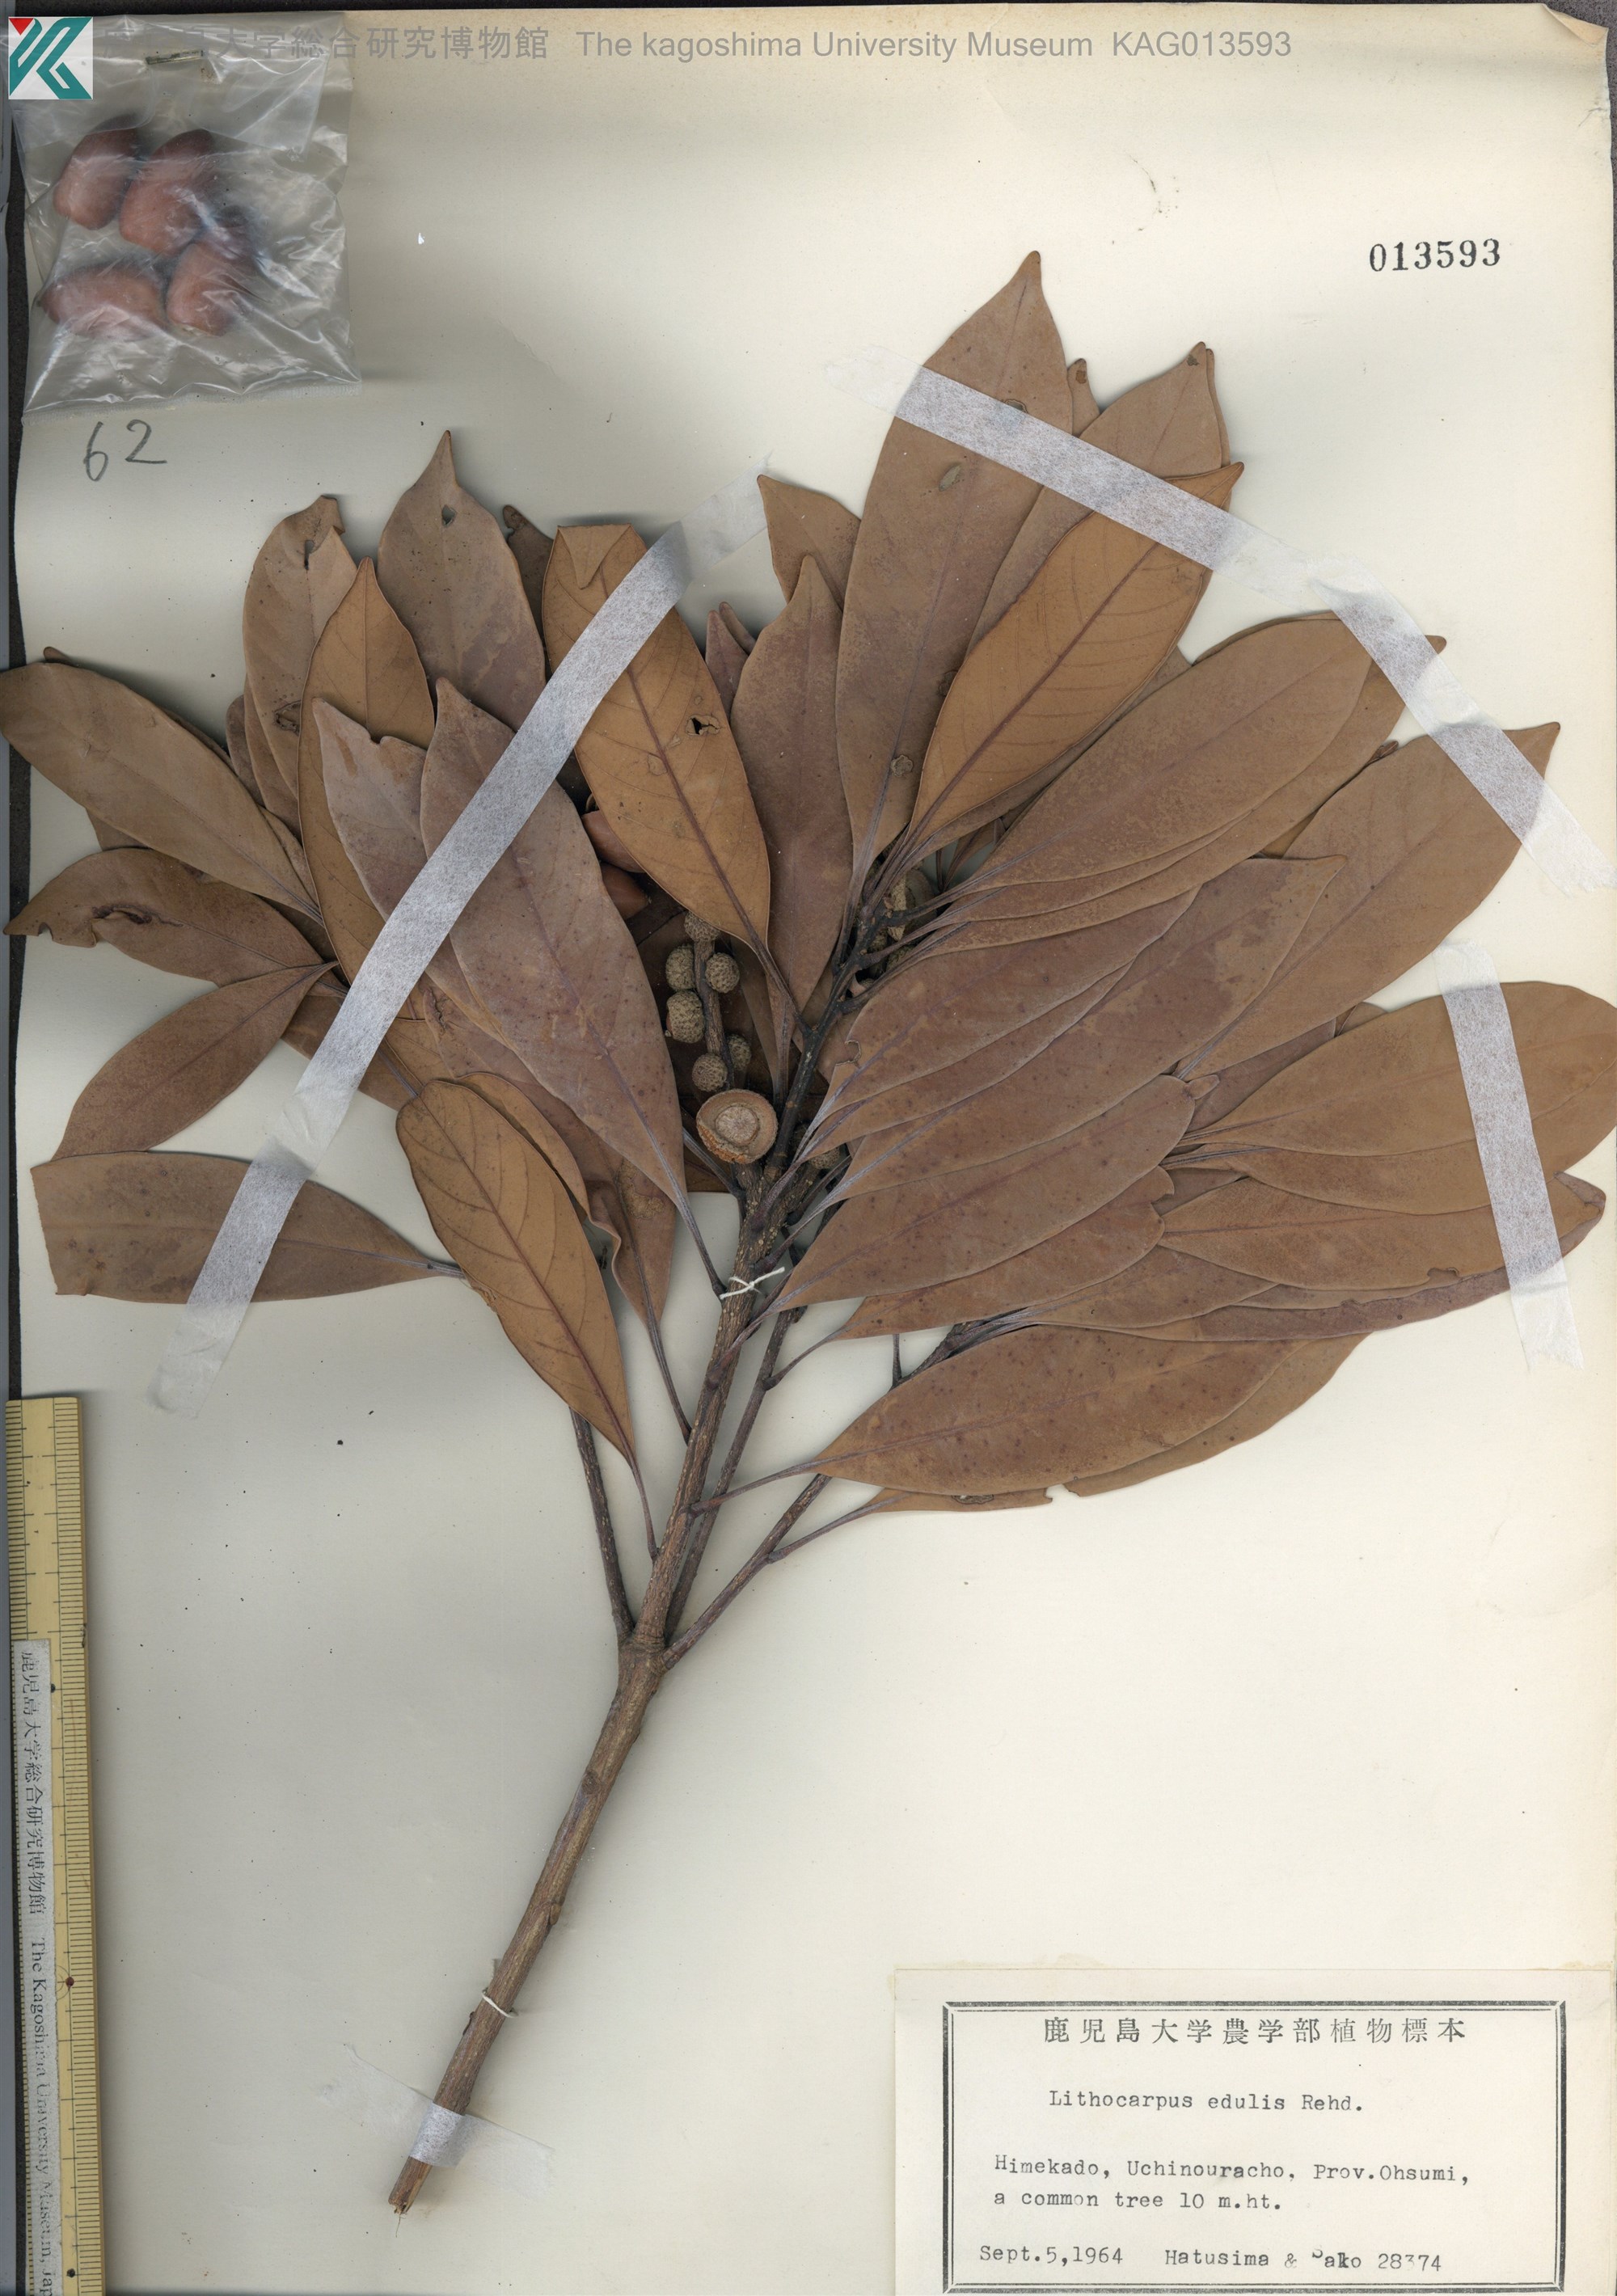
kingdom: Plantae
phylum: Tracheophyta
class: Magnoliopsida
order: Fagales
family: Fagaceae
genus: Lithocarpus
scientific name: Lithocarpus edulis
